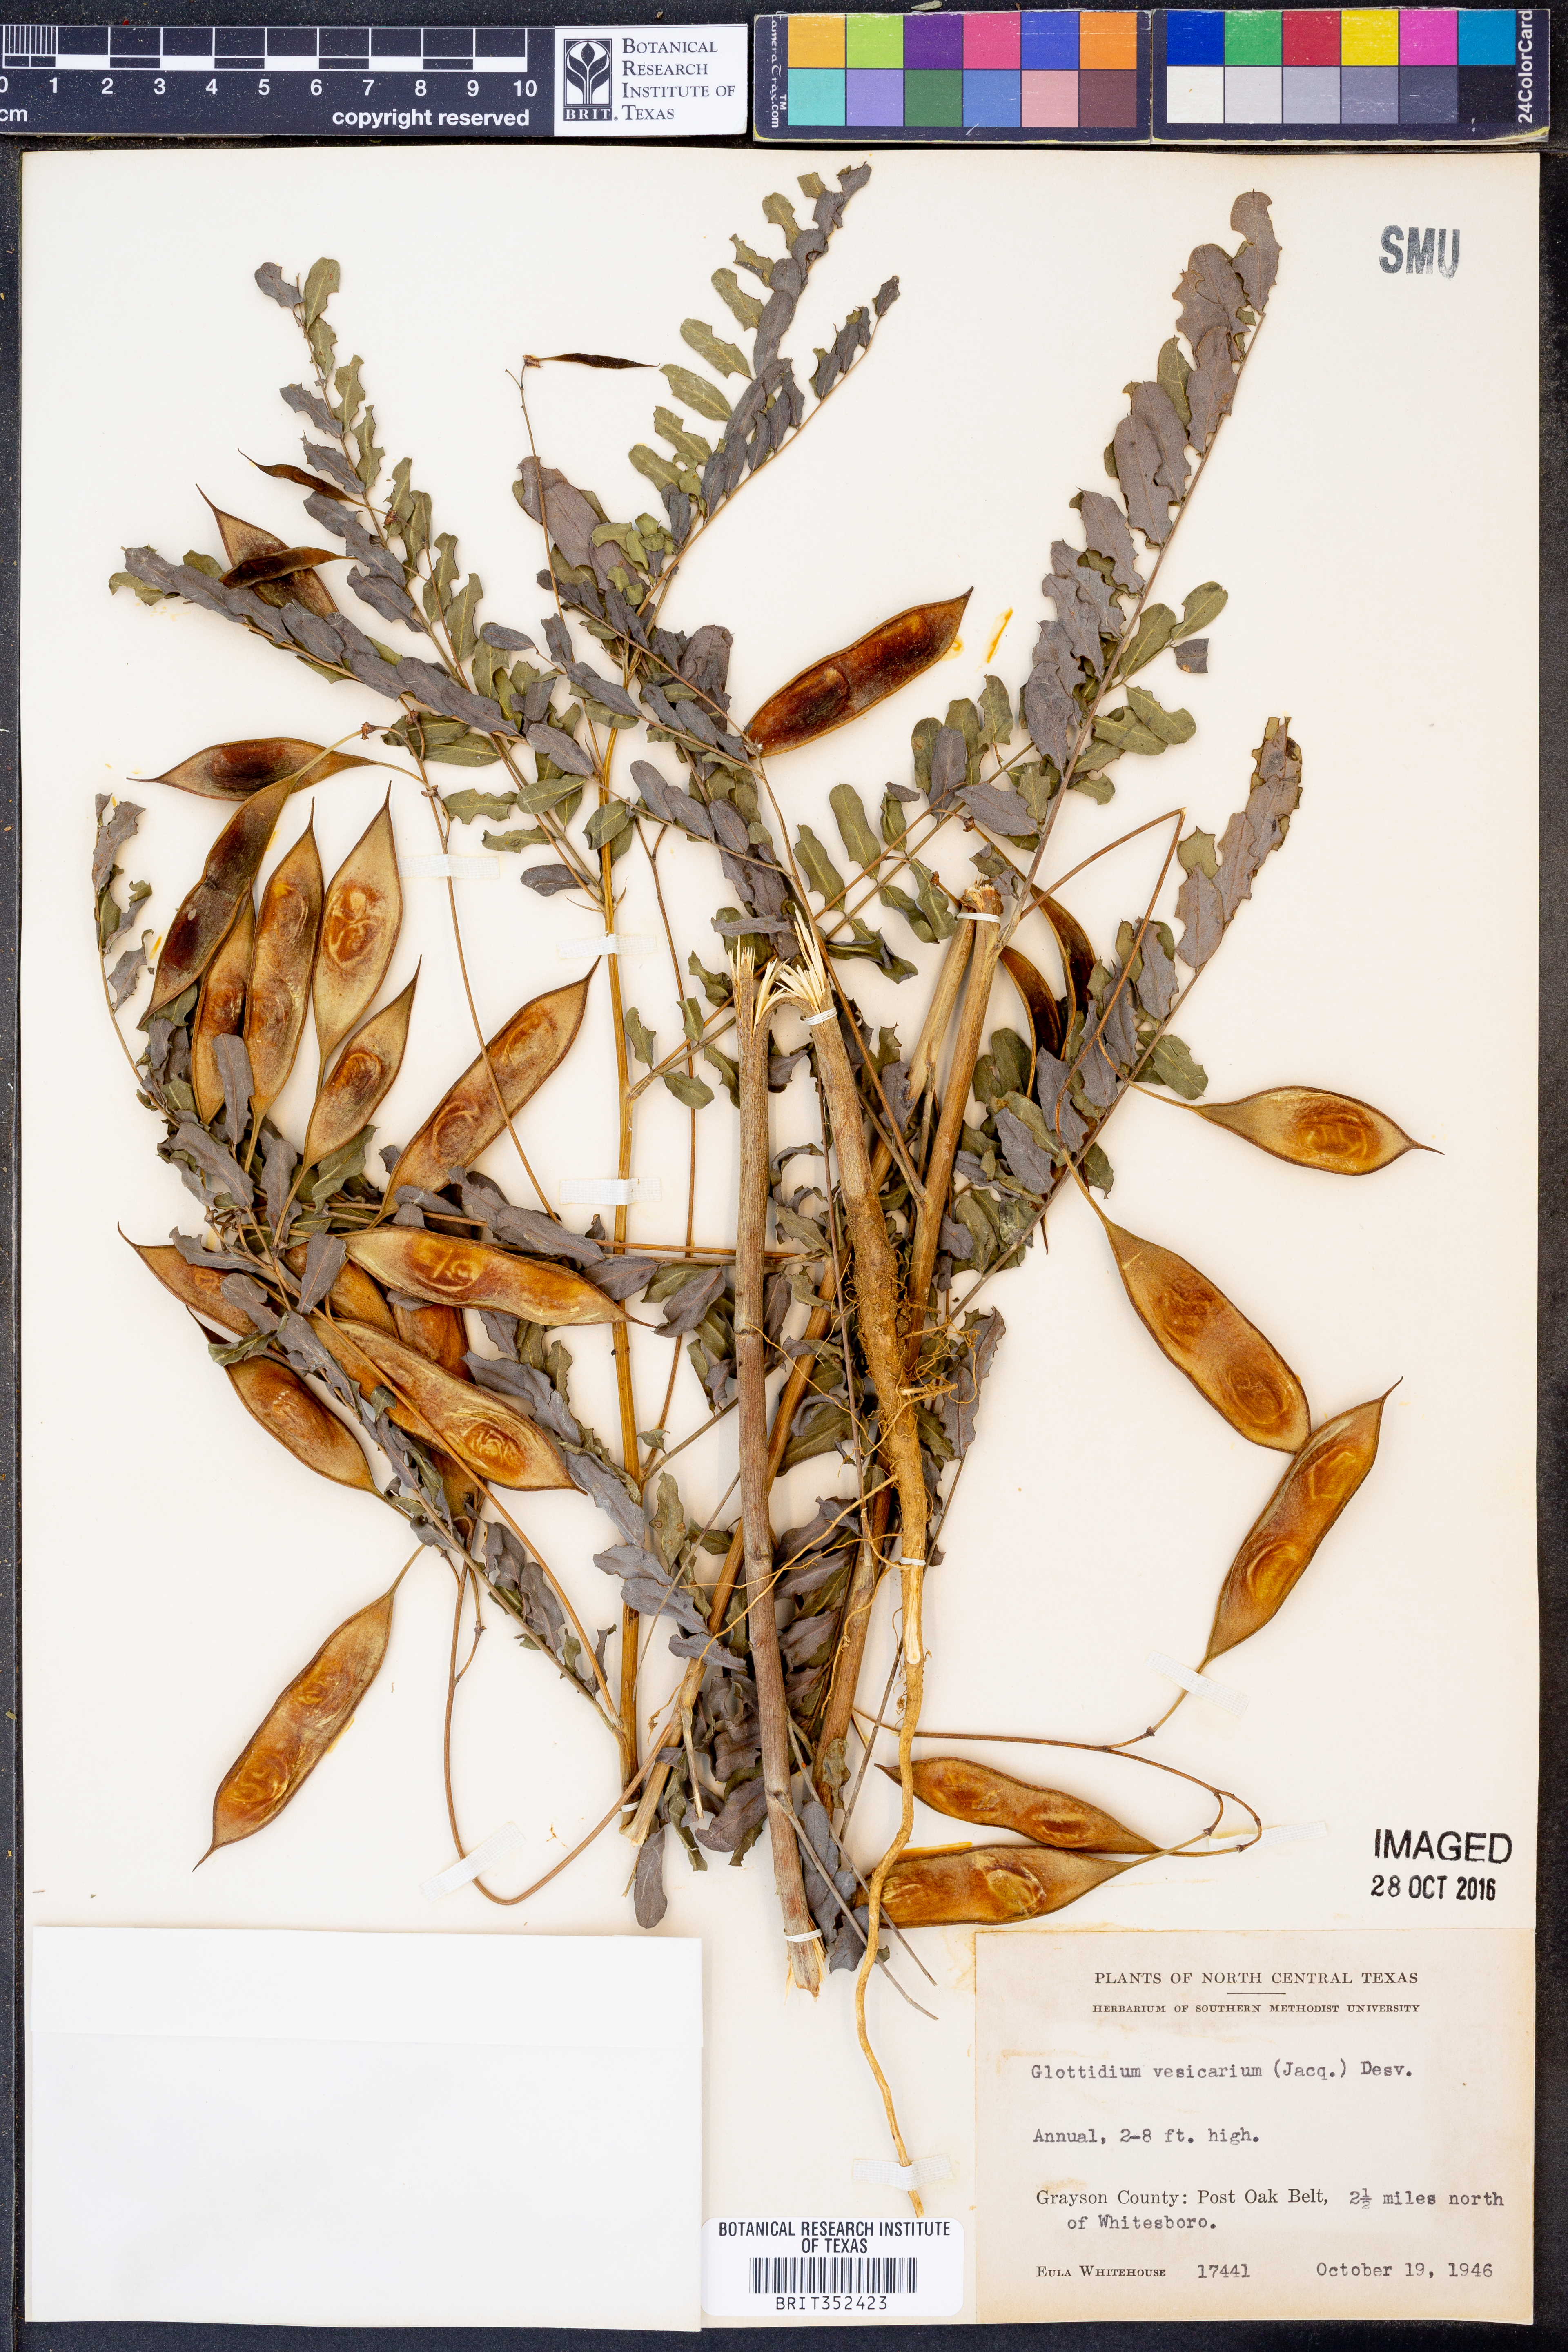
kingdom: Plantae
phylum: Tracheophyta
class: Magnoliopsida
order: Fabales
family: Fabaceae
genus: Sesbania
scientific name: Sesbania vesicaria
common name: Bagpod
